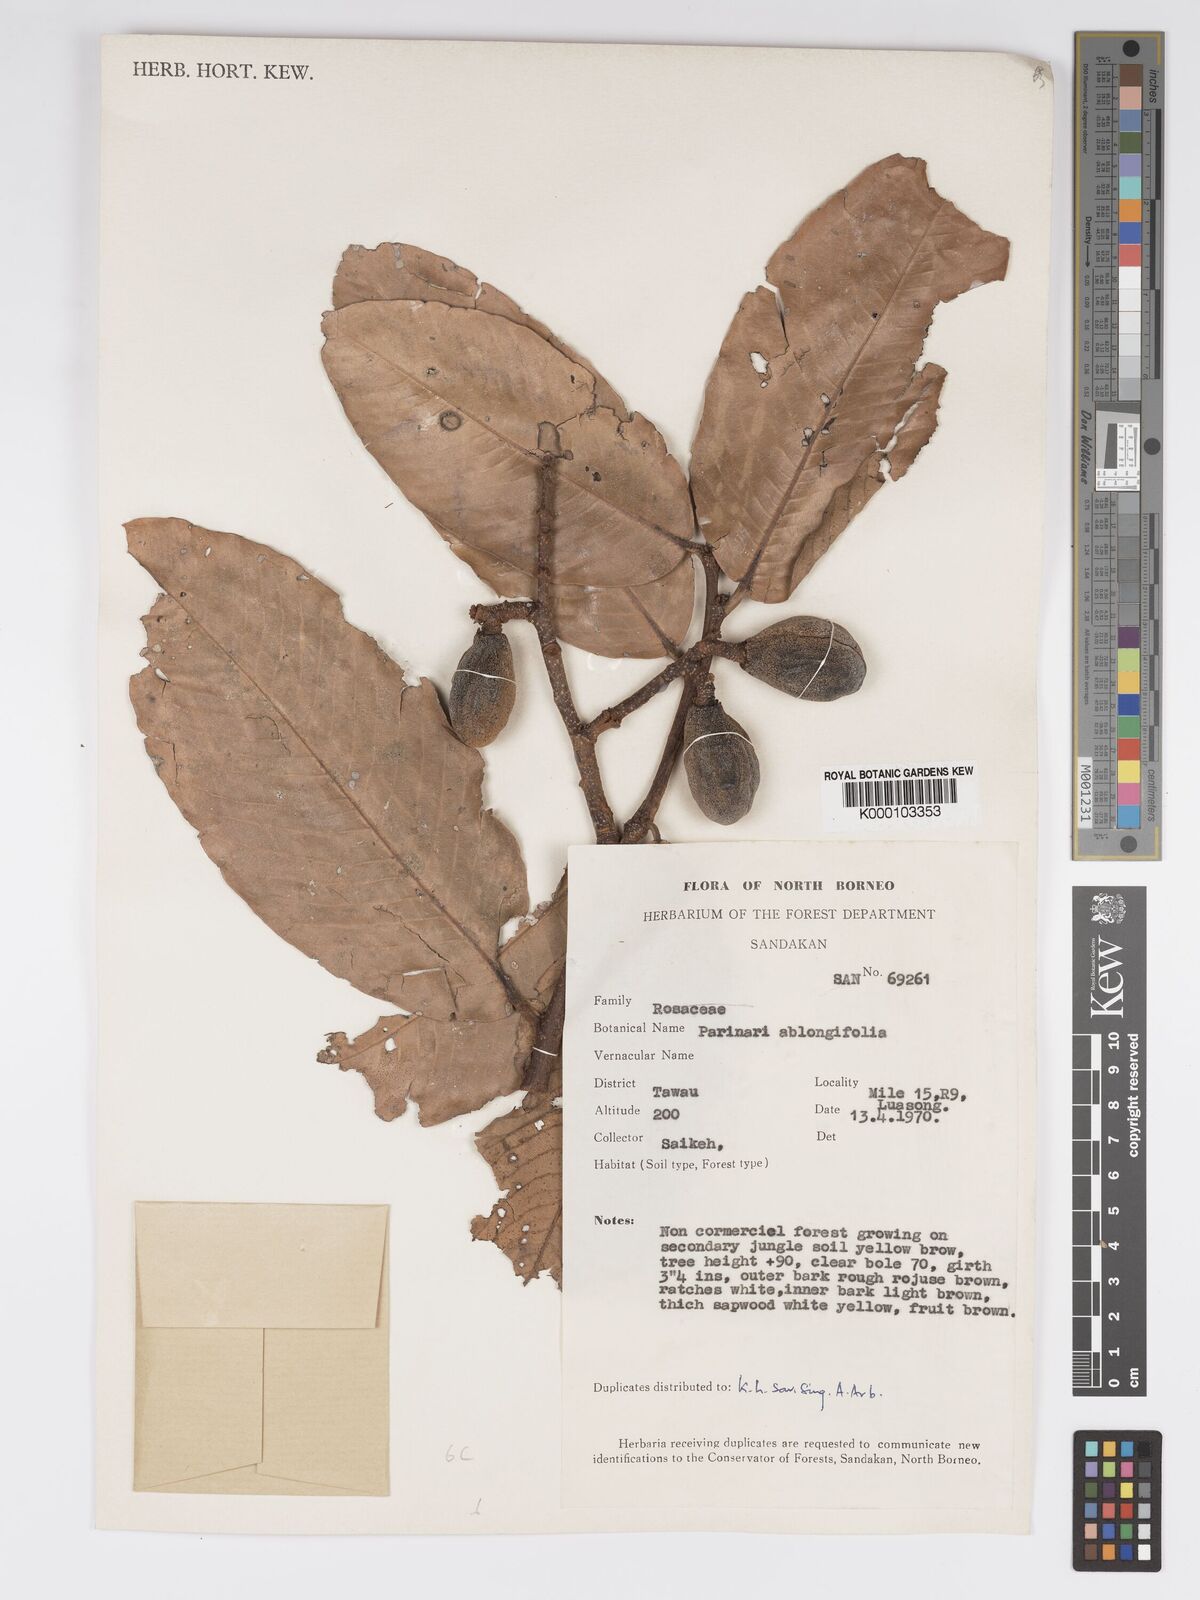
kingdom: Plantae
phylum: Tracheophyta
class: Magnoliopsida
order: Malpighiales
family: Chrysobalanaceae
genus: Parinari
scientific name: Parinari oblongifolia
